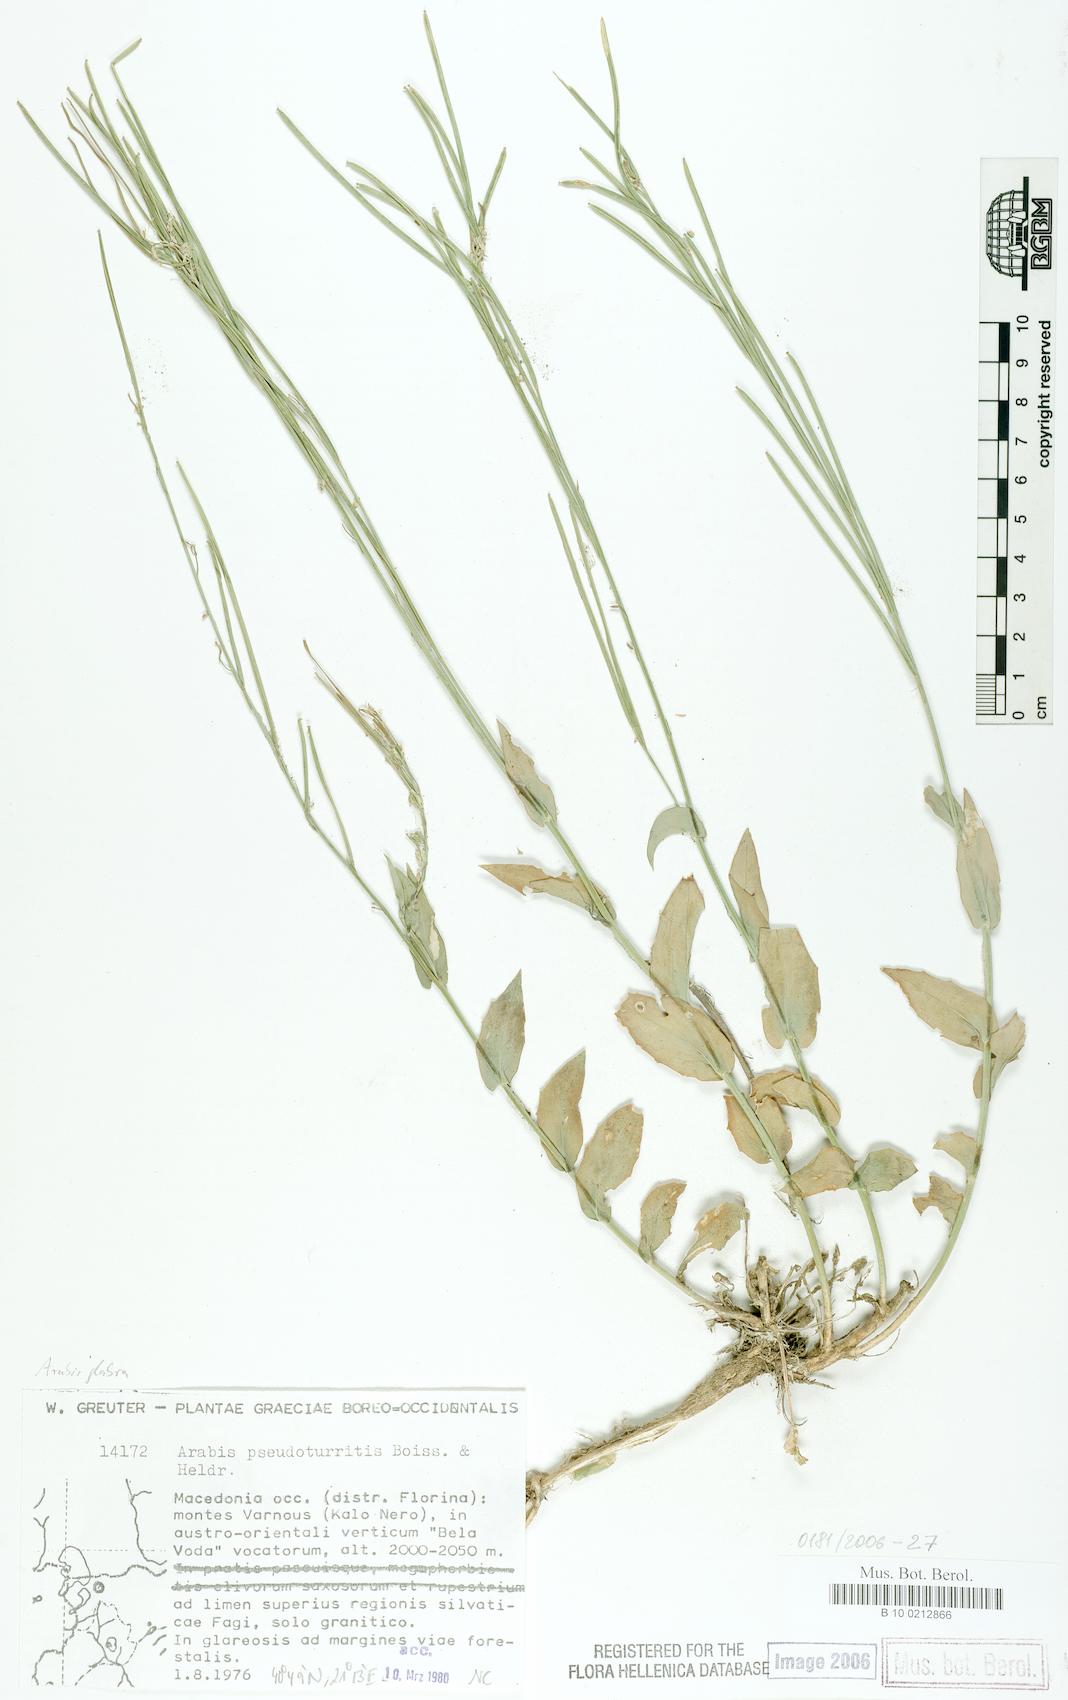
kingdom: Plantae
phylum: Tracheophyta
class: Magnoliopsida
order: Brassicales
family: Brassicaceae
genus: Turritis
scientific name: Turritis glabra
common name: Tower rockcress
